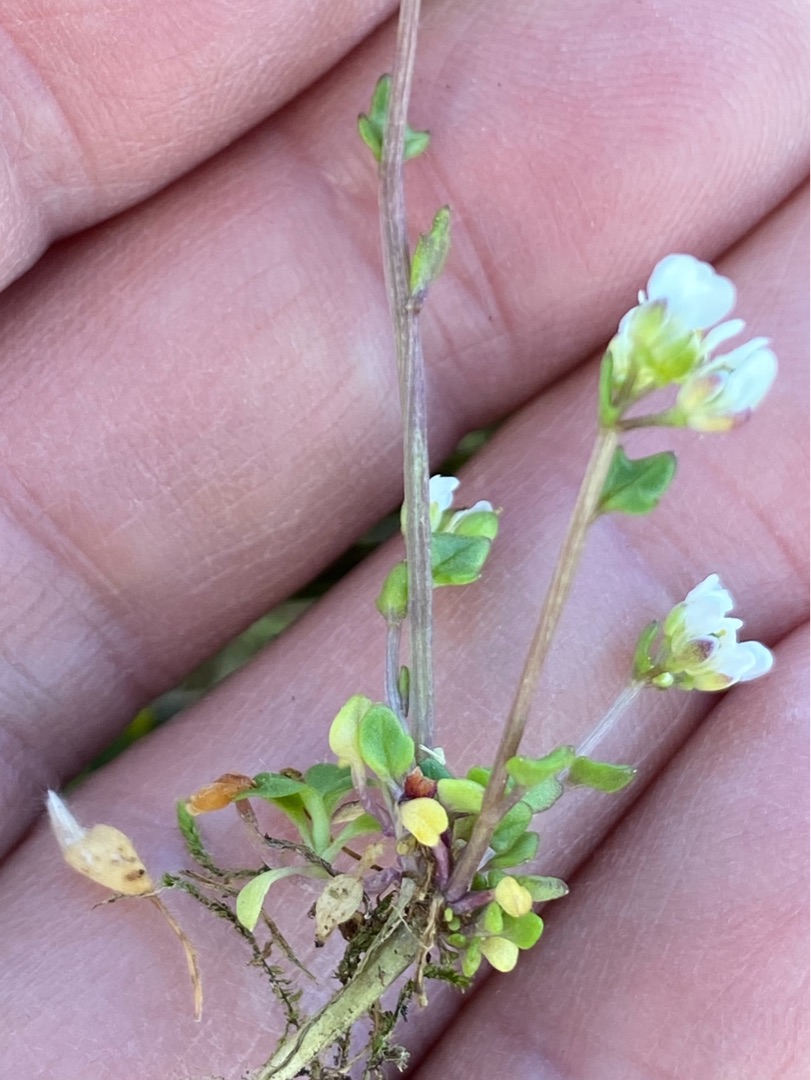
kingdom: Plantae
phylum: Tracheophyta
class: Magnoliopsida
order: Brassicales
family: Brassicaceae
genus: Cochlearia
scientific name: Cochlearia danica
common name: Dansk kokleare
